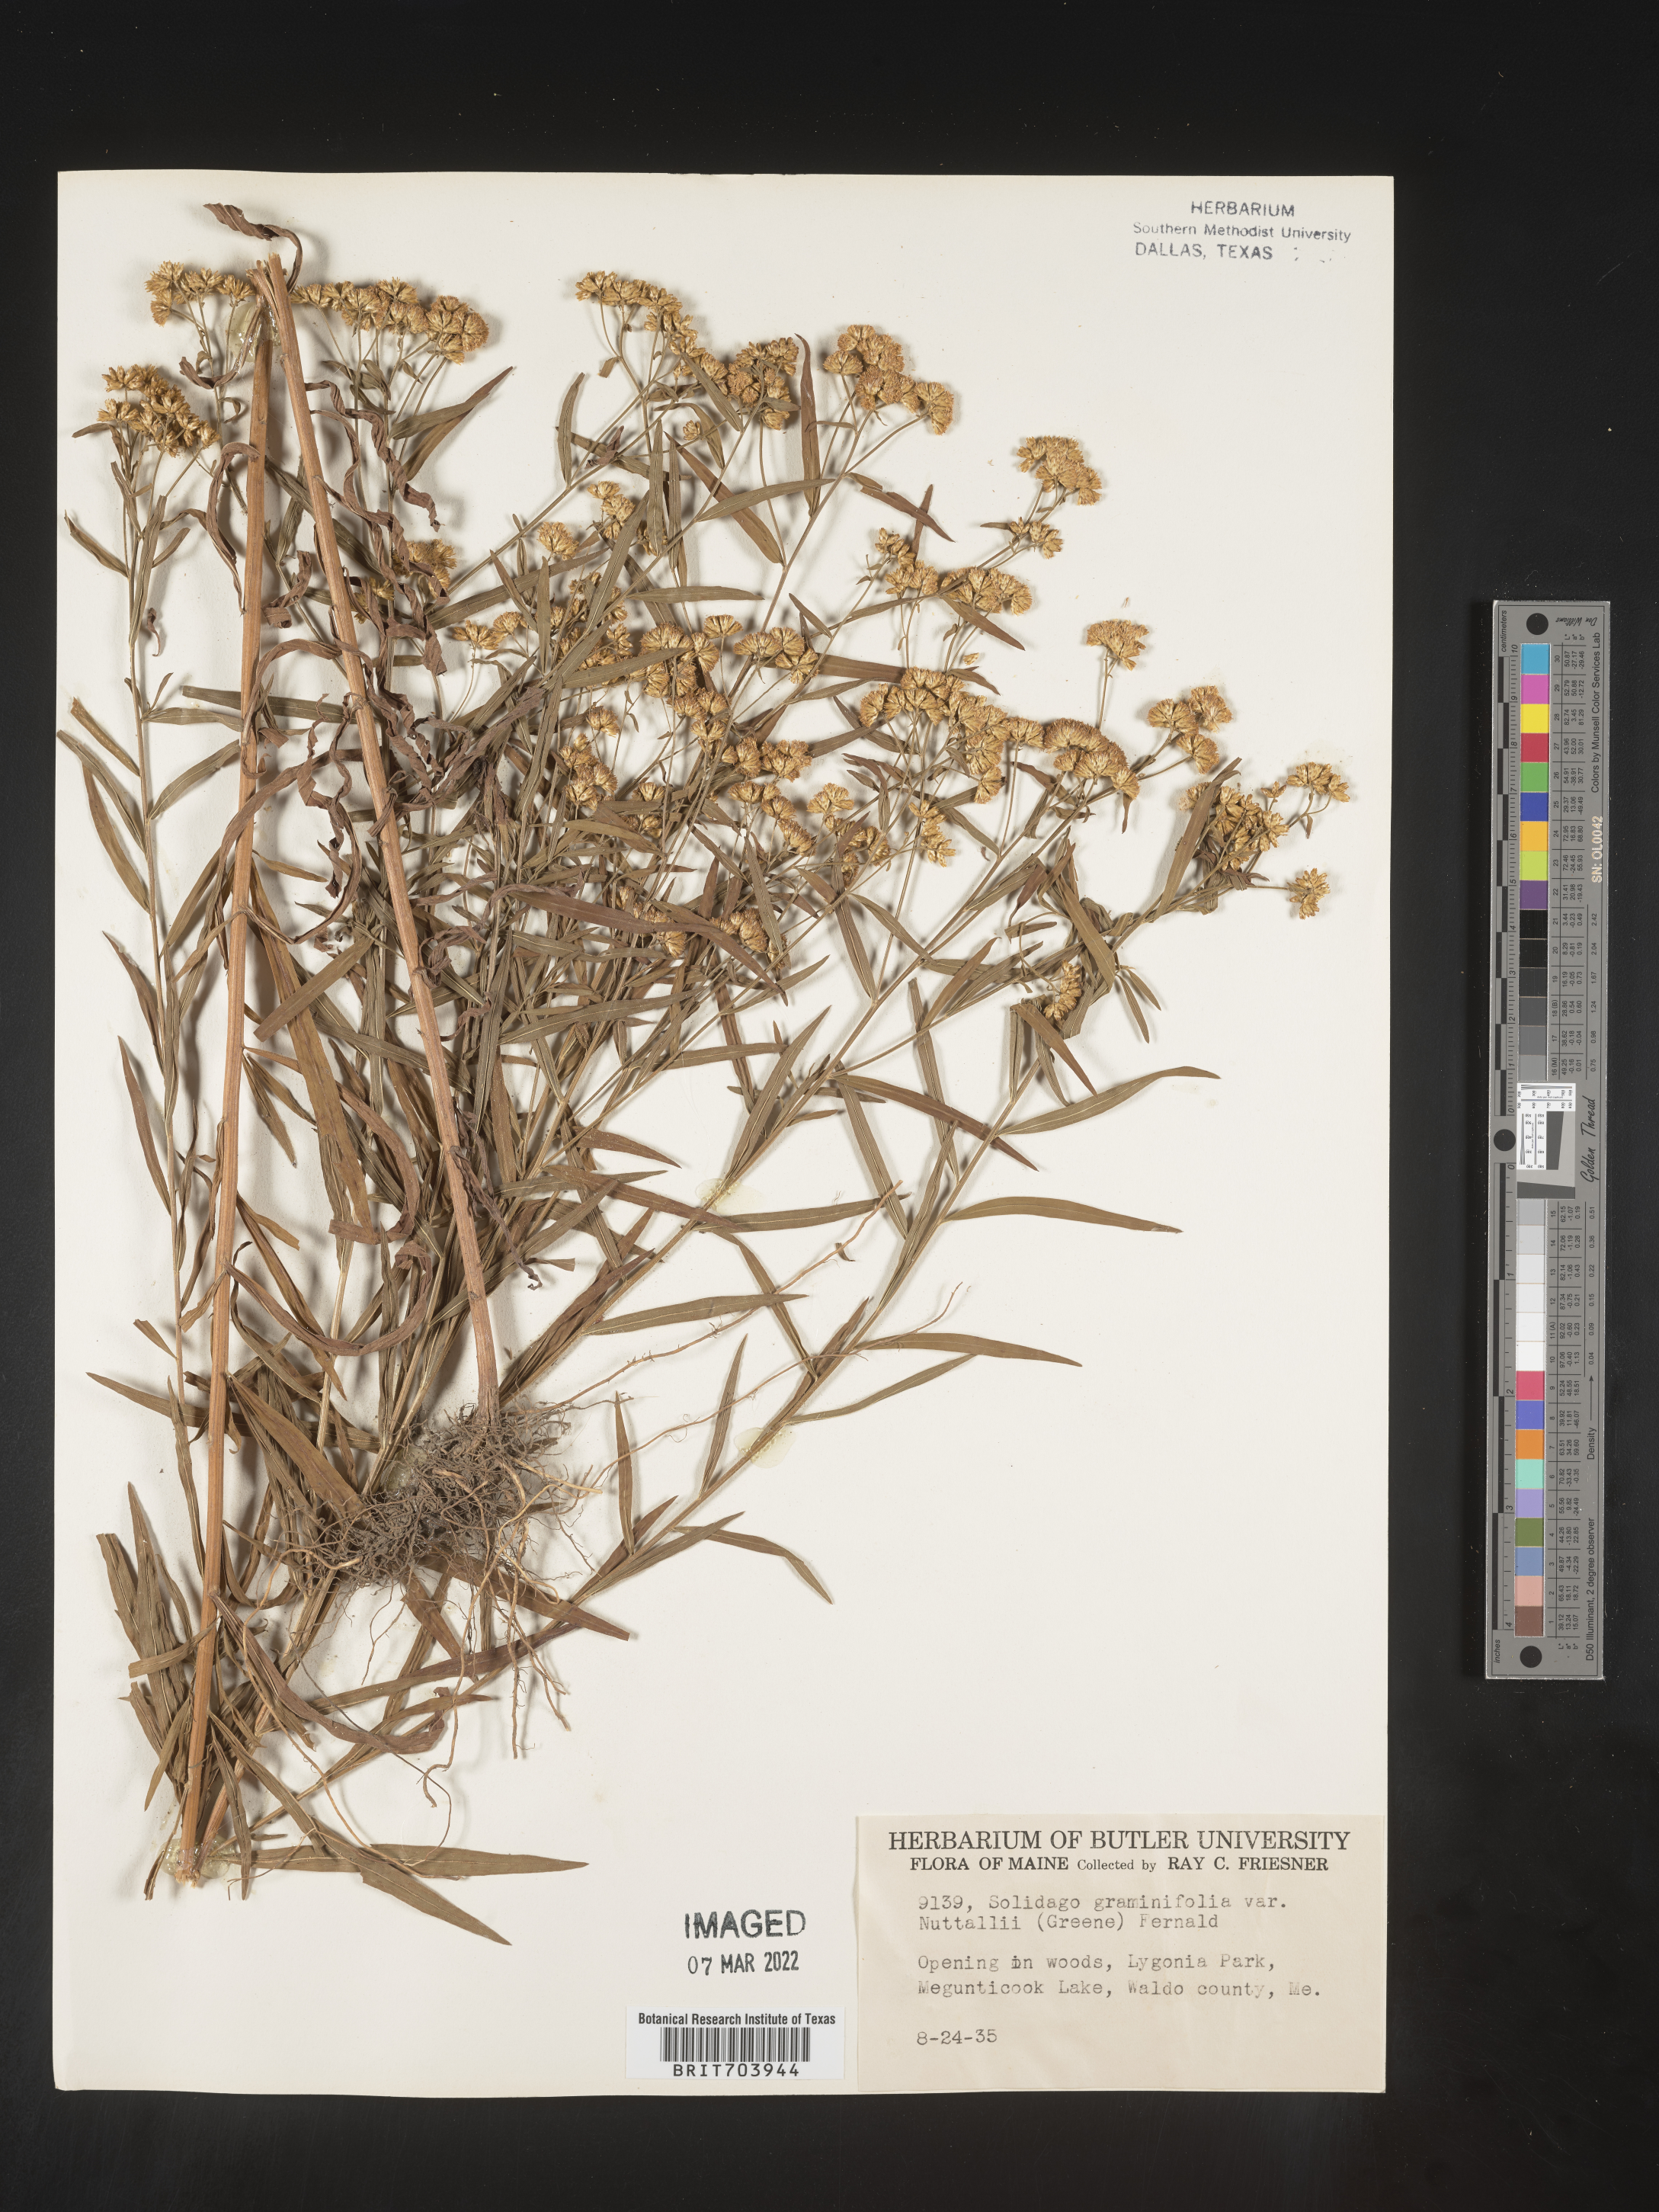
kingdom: Plantae
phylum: Tracheophyta
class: Magnoliopsida
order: Asterales
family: Asteraceae
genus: Euthamia
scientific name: Euthamia graminifolia
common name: Common goldentop
